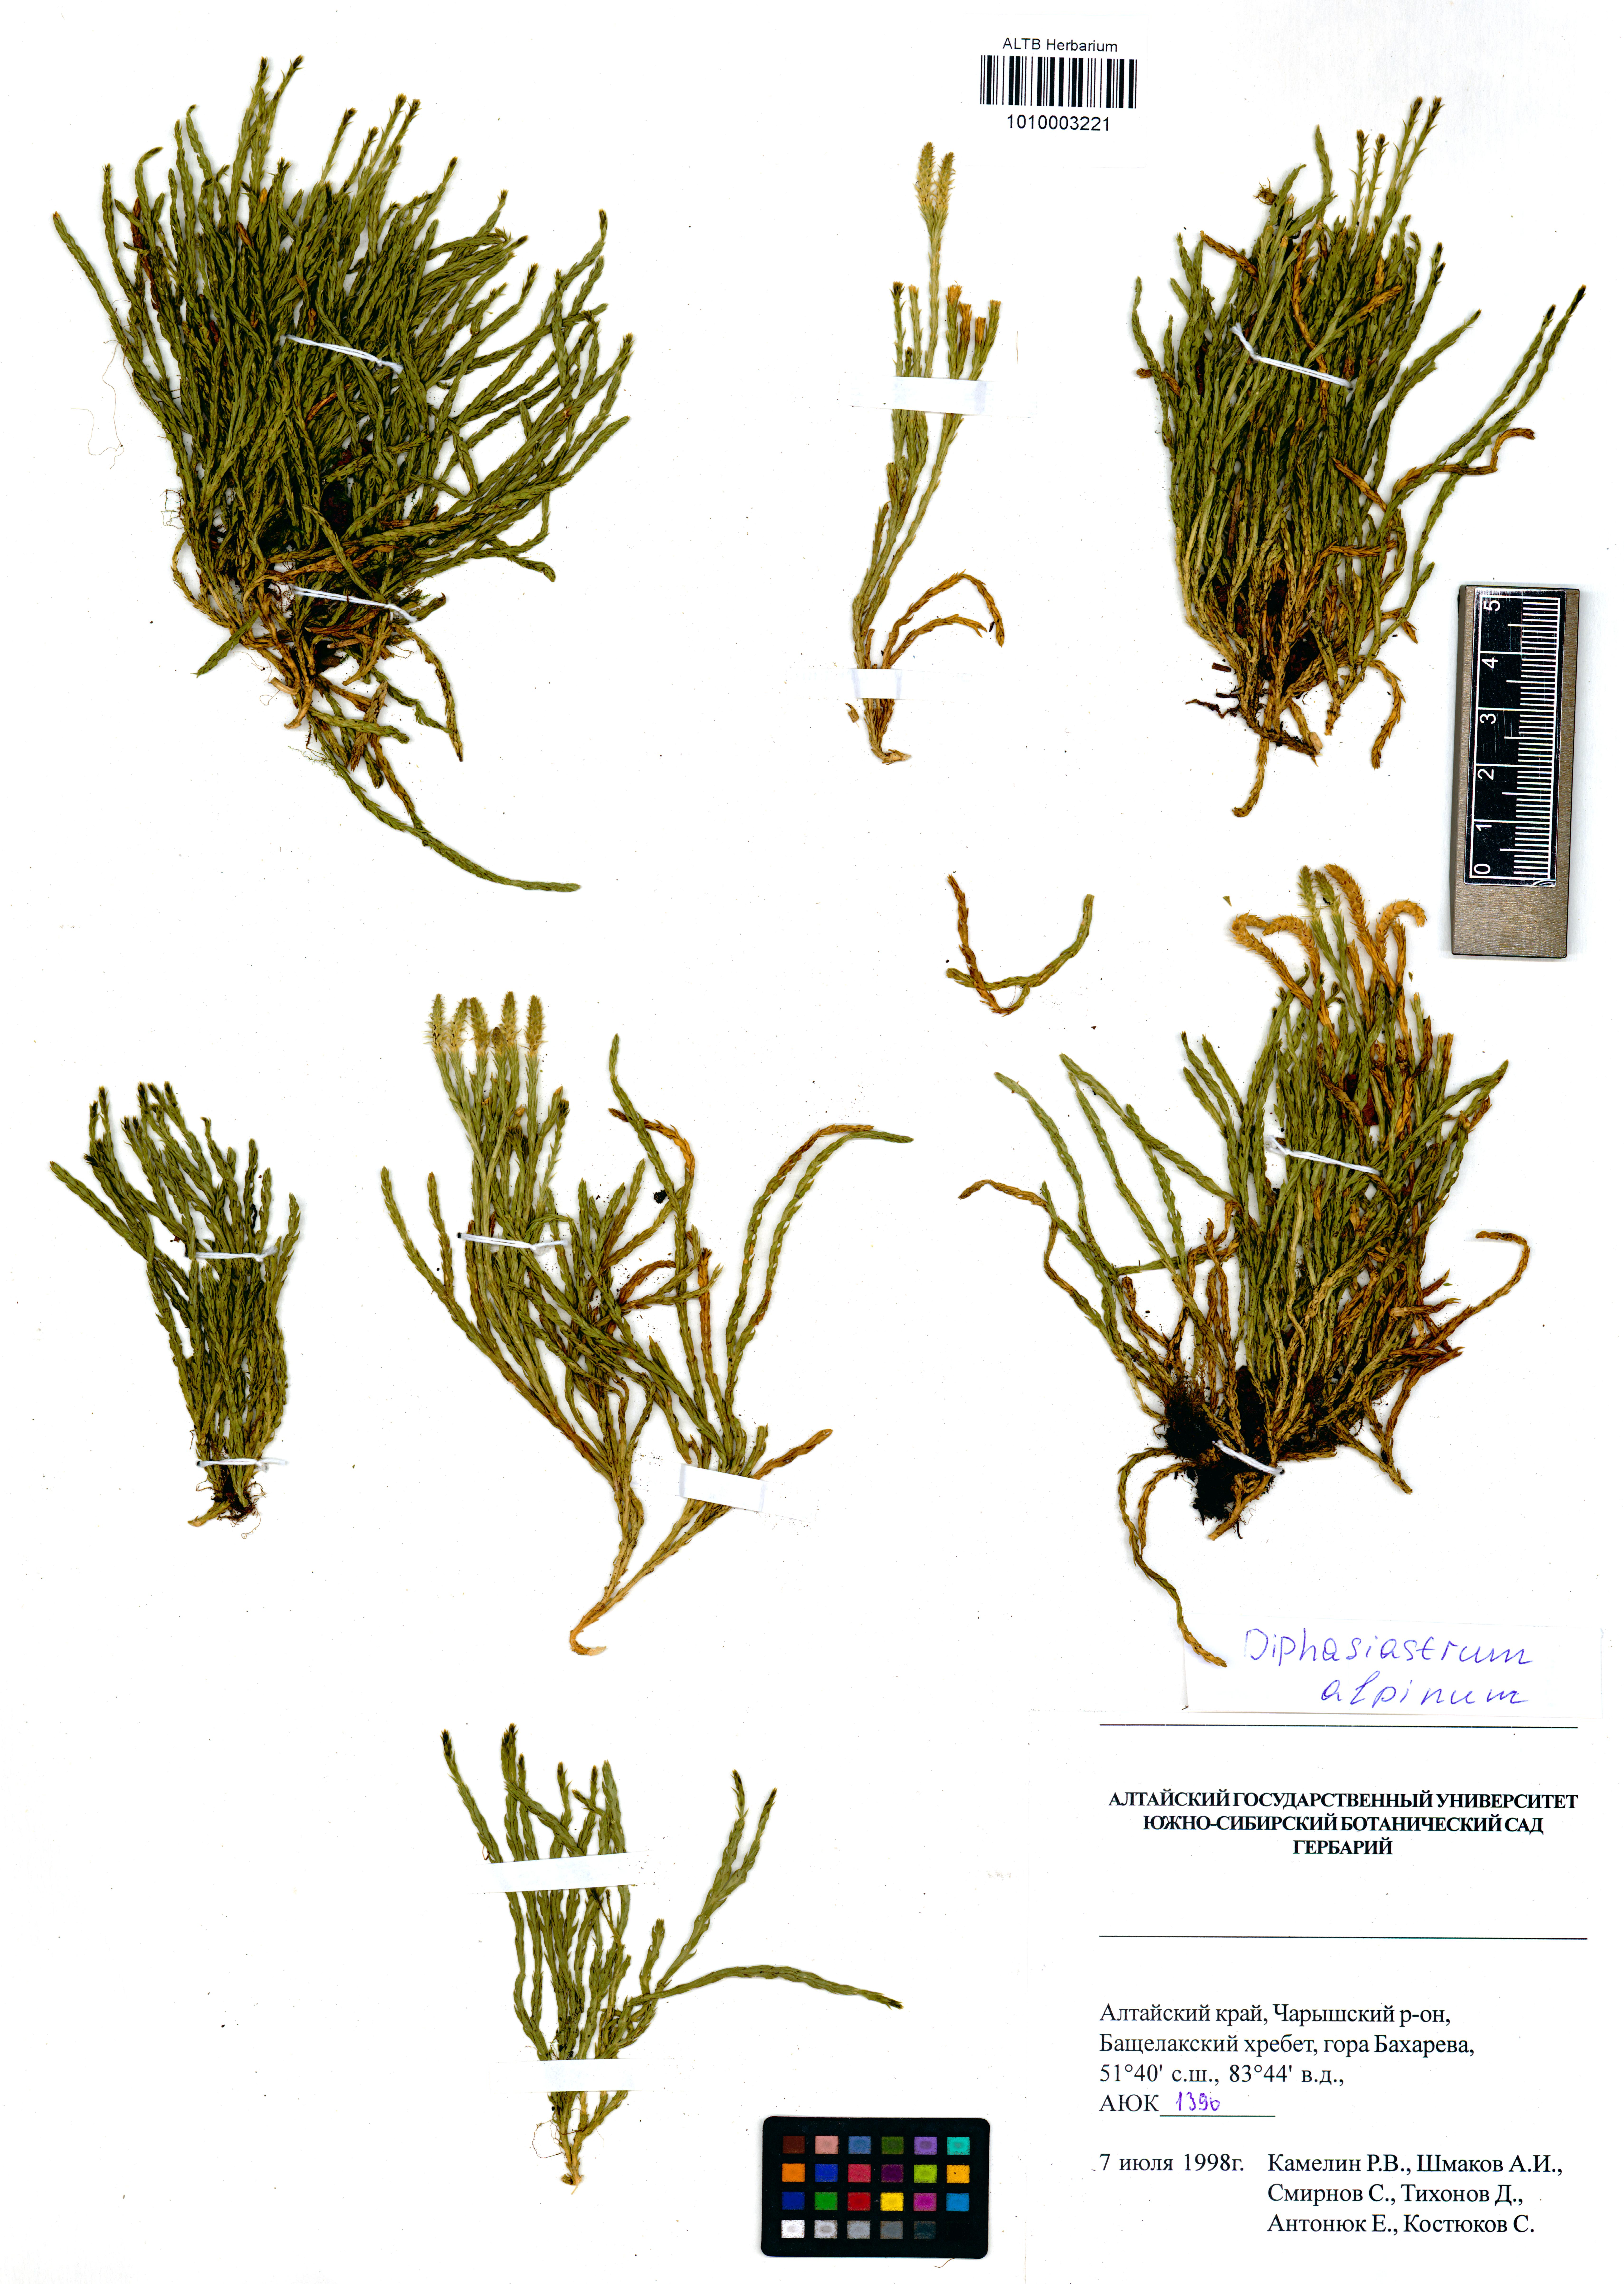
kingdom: Plantae
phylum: Tracheophyta
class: Lycopodiopsida
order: Lycopodiales
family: Lycopodiaceae
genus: Diphasiastrum
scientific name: Diphasiastrum alpinum
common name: Alpine clubmoss
